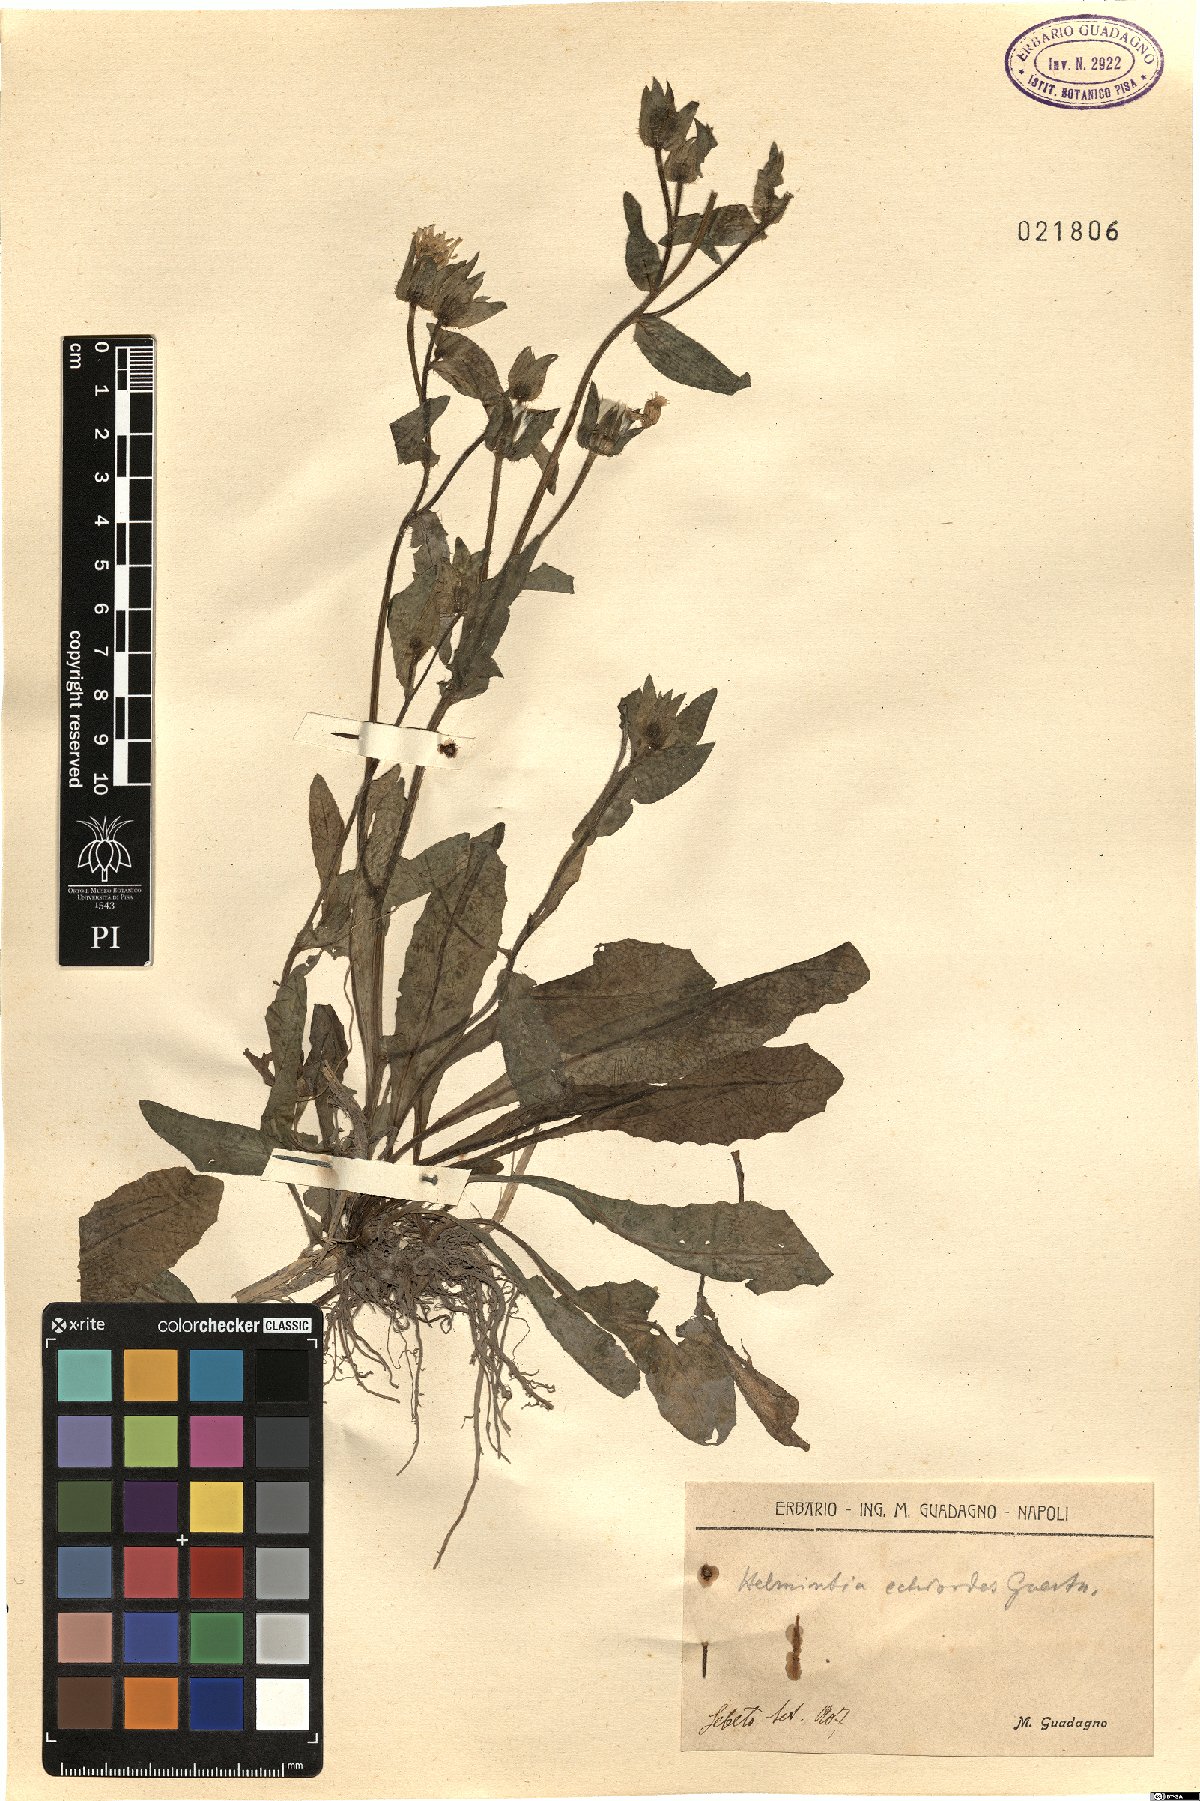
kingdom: Plantae
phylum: Tracheophyta
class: Magnoliopsida
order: Asterales
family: Asteraceae
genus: Helminthotheca
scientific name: Helminthotheca echioides
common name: Ox-tongue
